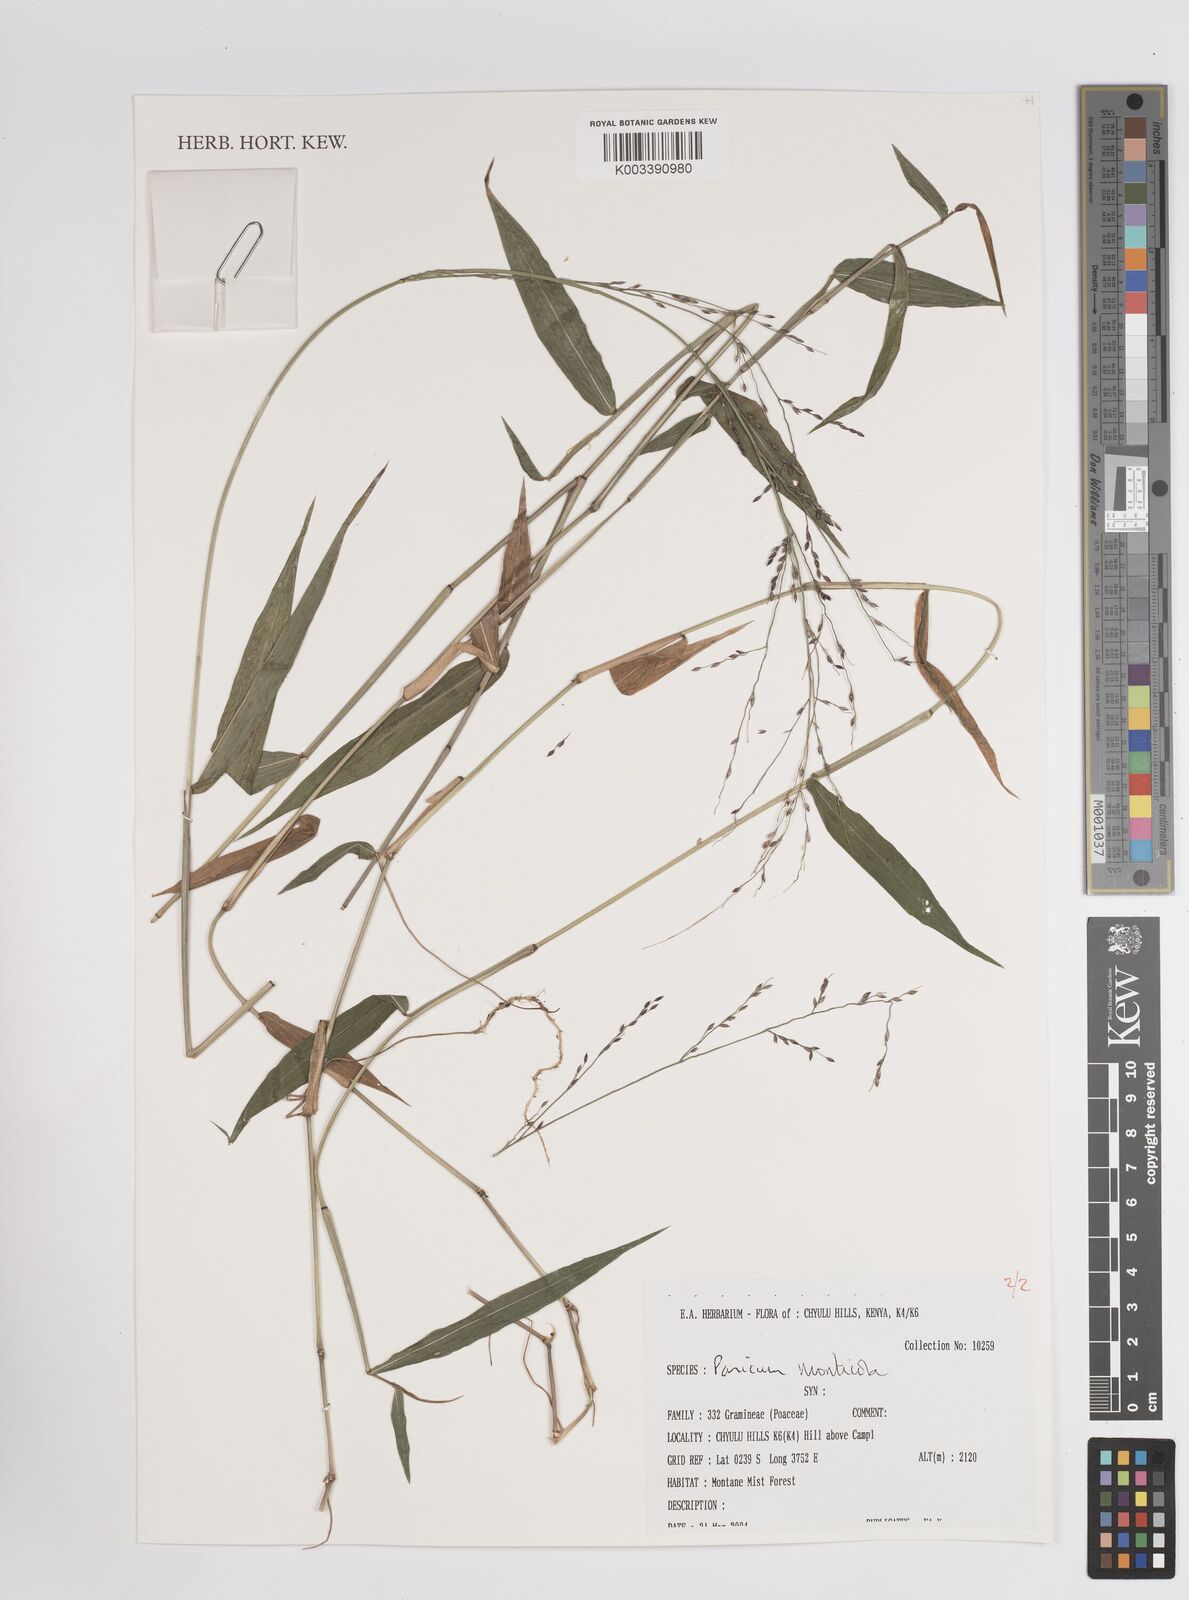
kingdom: Plantae
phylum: Tracheophyta
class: Liliopsida
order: Poales
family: Poaceae
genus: Panicum
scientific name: Panicum monticola
